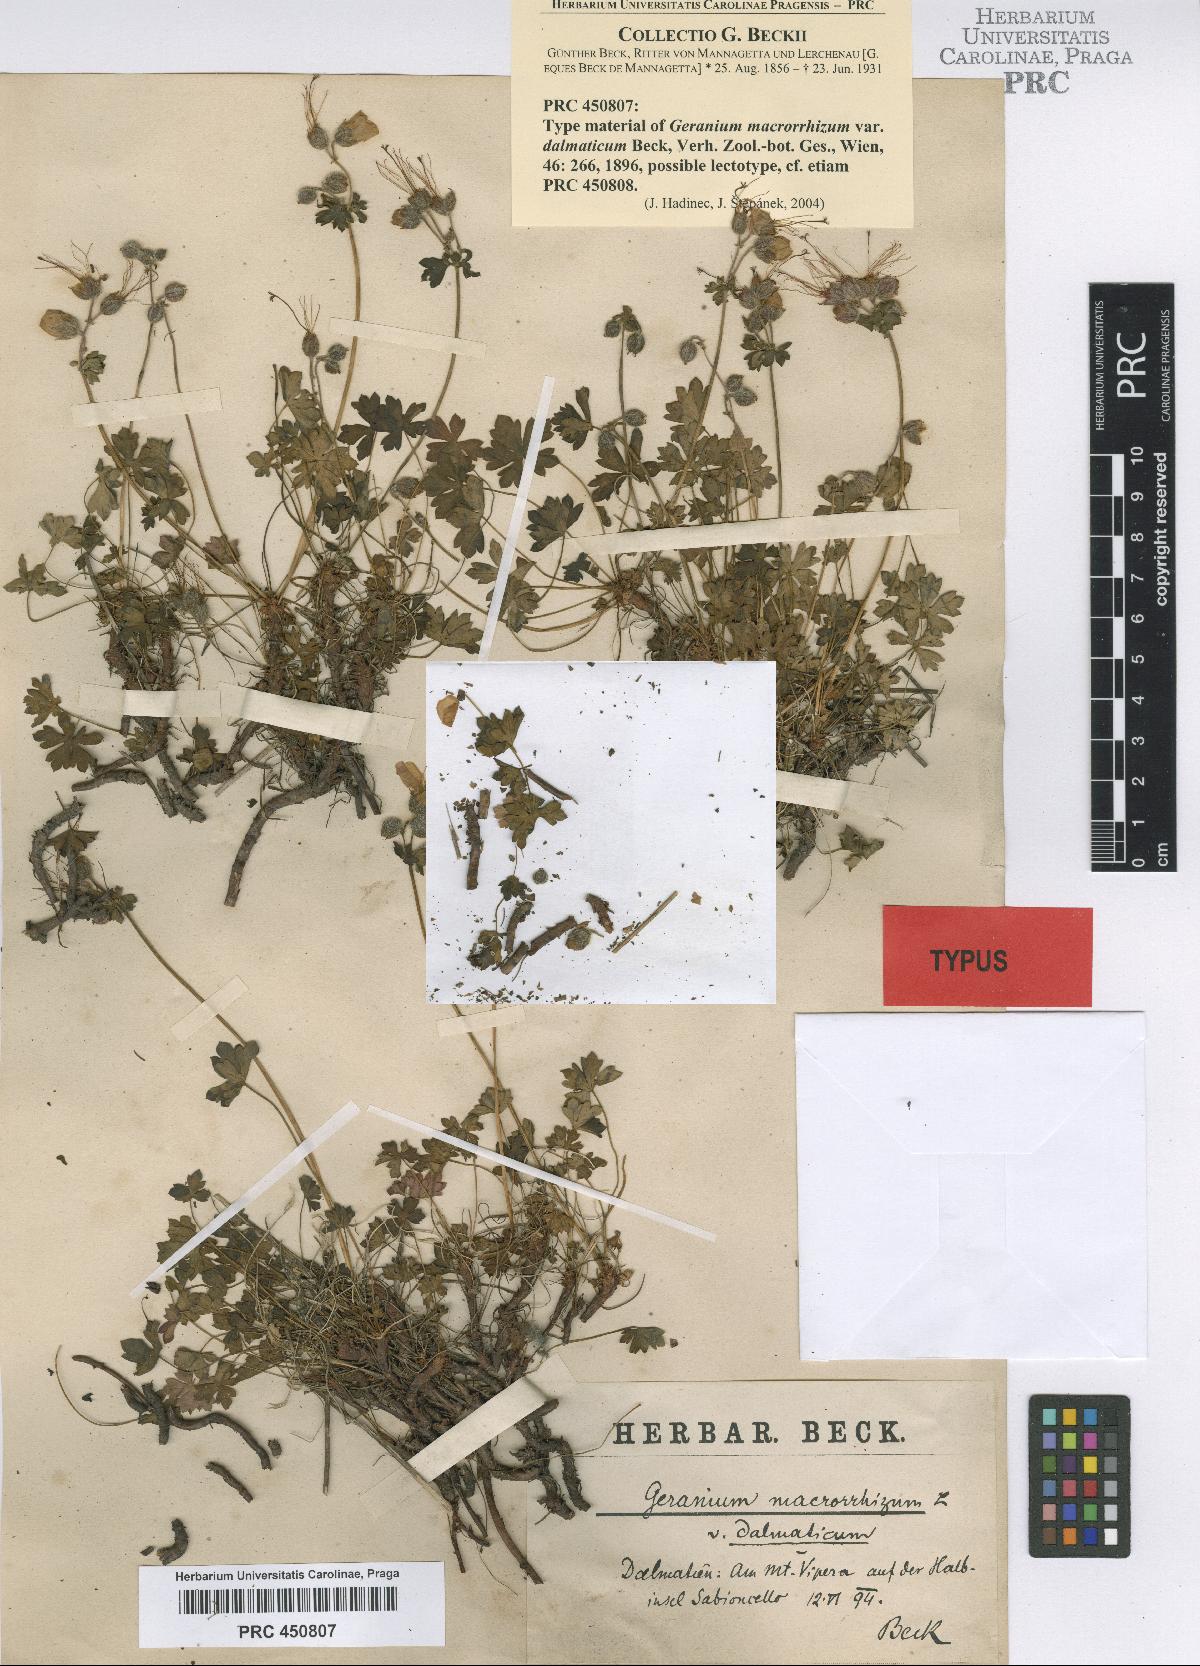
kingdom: Plantae
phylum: Tracheophyta
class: Magnoliopsida
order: Geraniales
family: Geraniaceae
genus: Geranium
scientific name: Geranium dalmaticum
